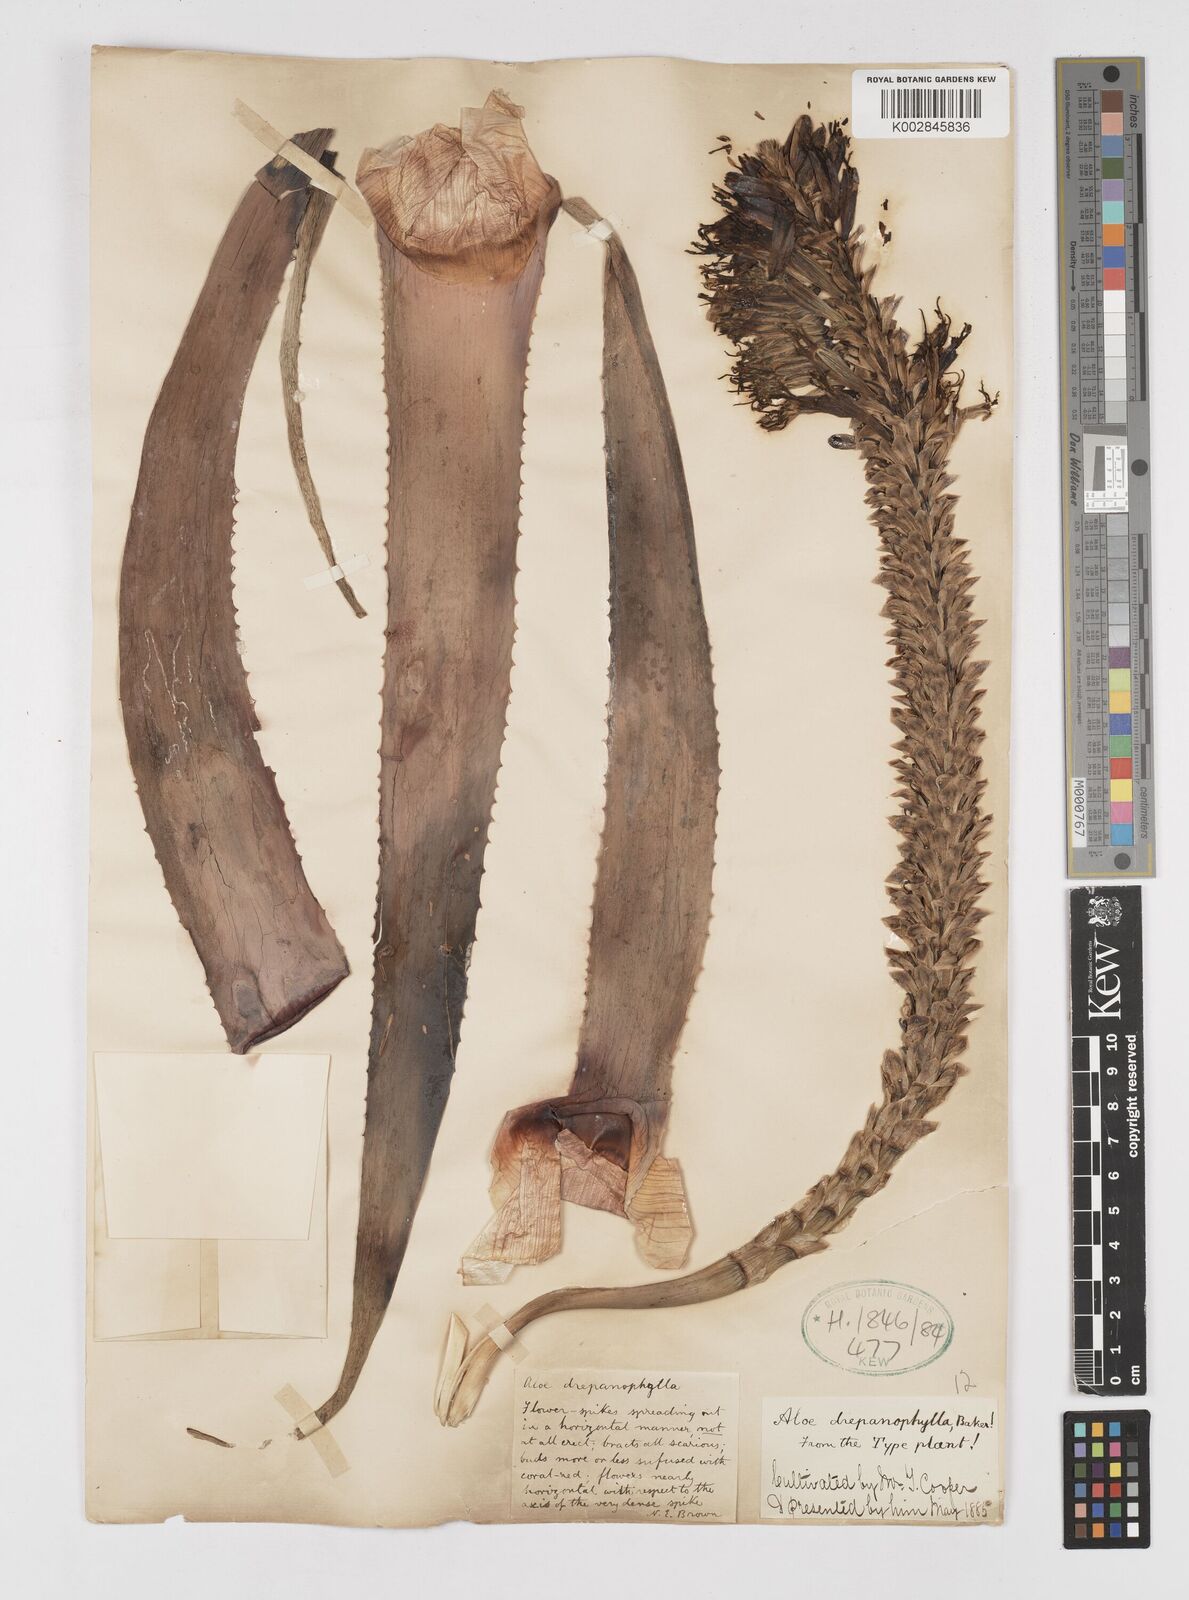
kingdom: Plantae
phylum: Tracheophyta
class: Liliopsida
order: Asparagales
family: Asphodelaceae
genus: Aloe
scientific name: Aloe hexapetala
